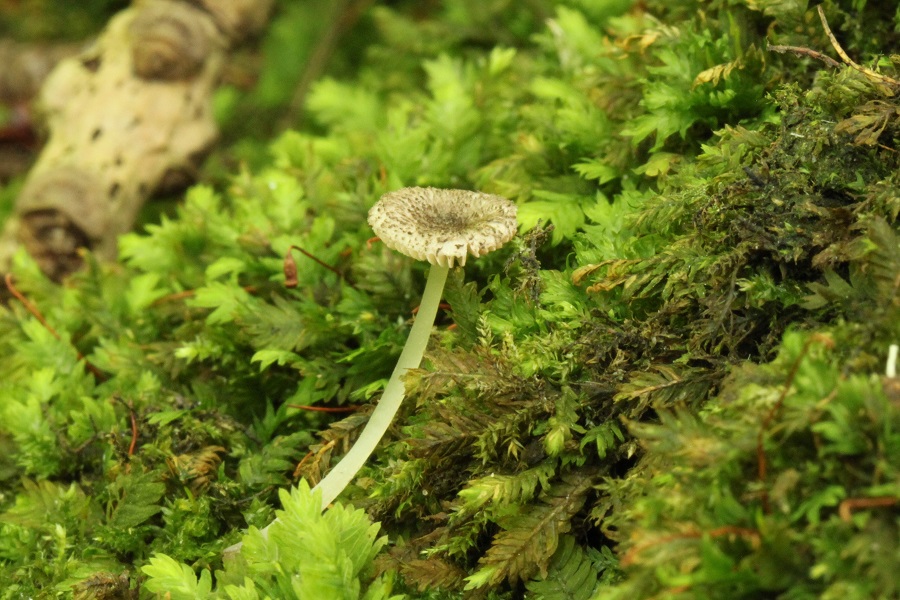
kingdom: Fungi
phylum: Basidiomycota
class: Agaricomycetes
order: Agaricales
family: Pluteaceae
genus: Pluteus
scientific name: Pluteus
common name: stivhåret skærmhat
